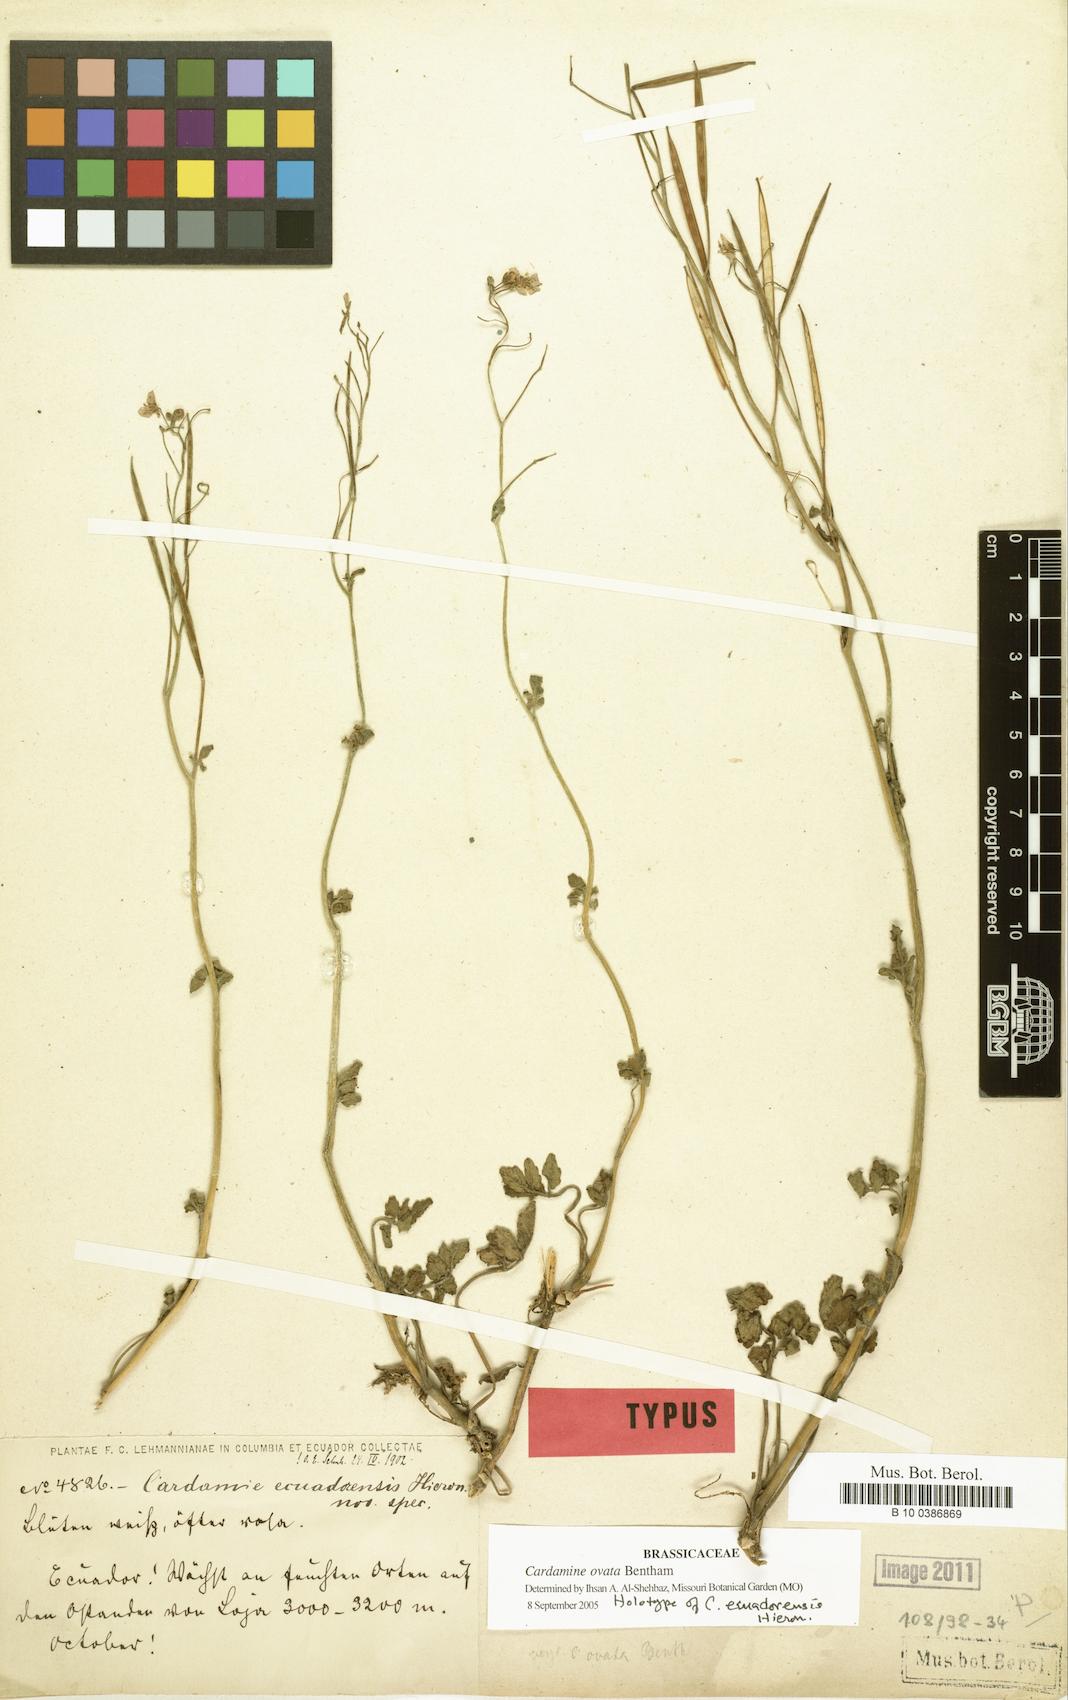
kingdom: Plantae
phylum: Tracheophyta
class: Magnoliopsida
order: Brassicales
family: Brassicaceae
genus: Cardamine
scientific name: Cardamine variabilis
